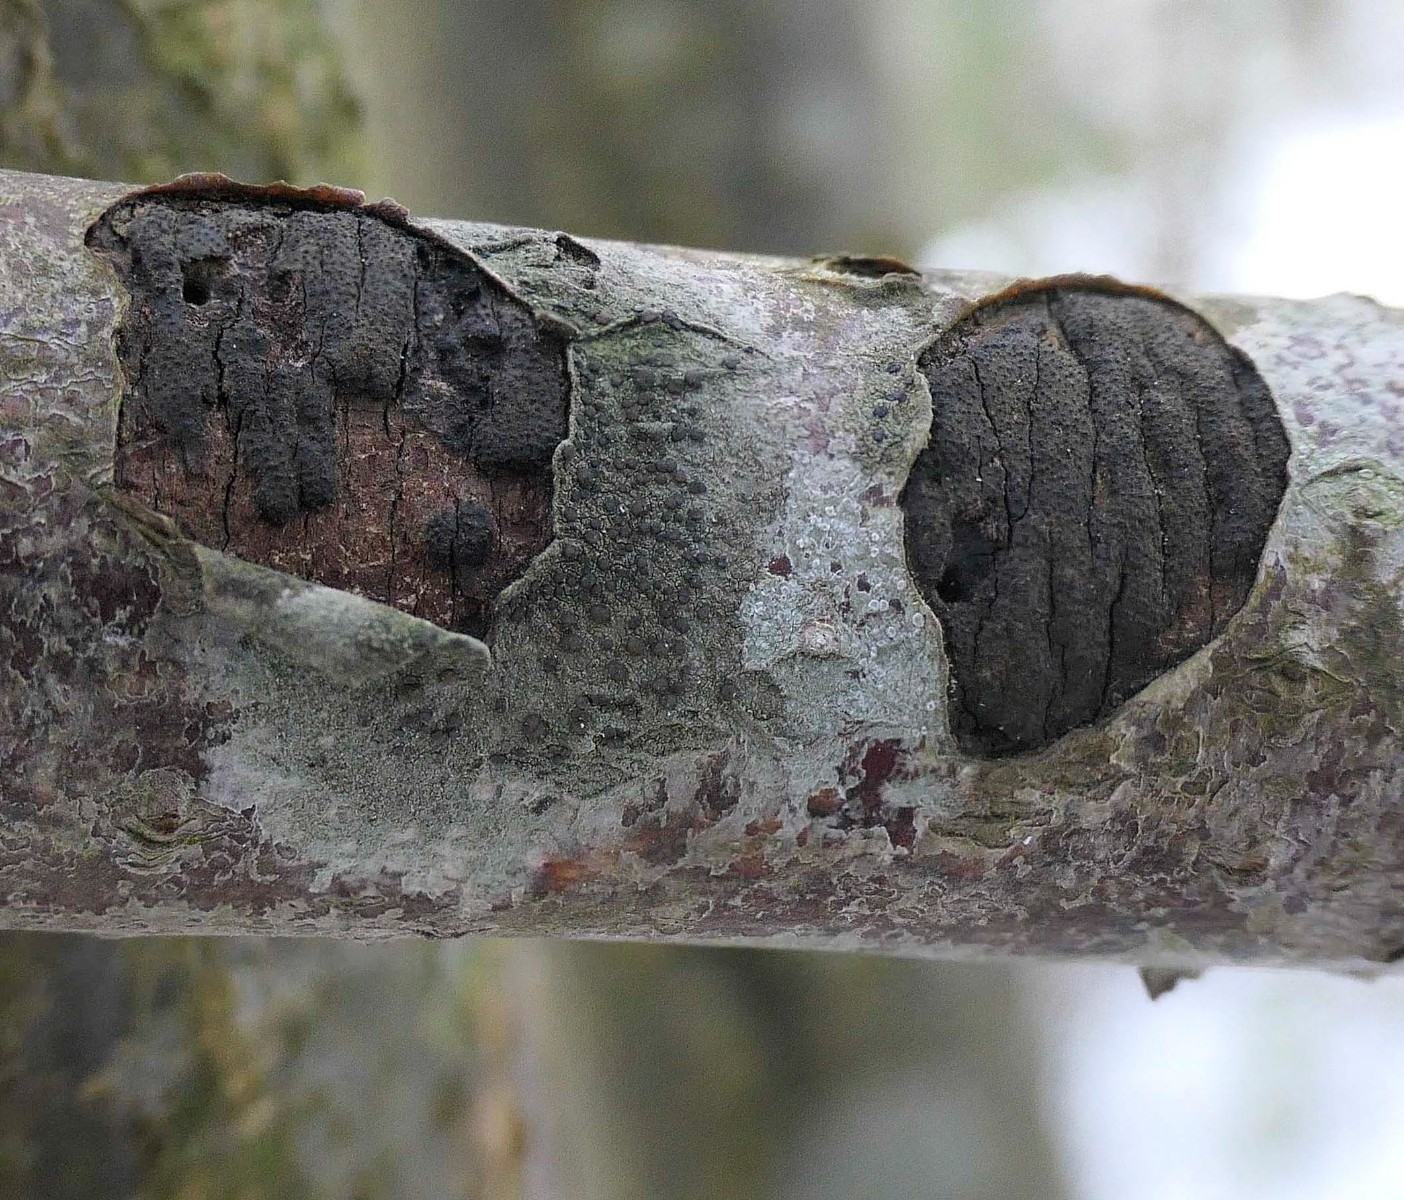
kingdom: Fungi
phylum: Ascomycota
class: Sordariomycetes
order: Xylariales
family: Diatrypaceae
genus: Diatrype
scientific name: Diatrype stigma
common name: udbredt kulskorpe
